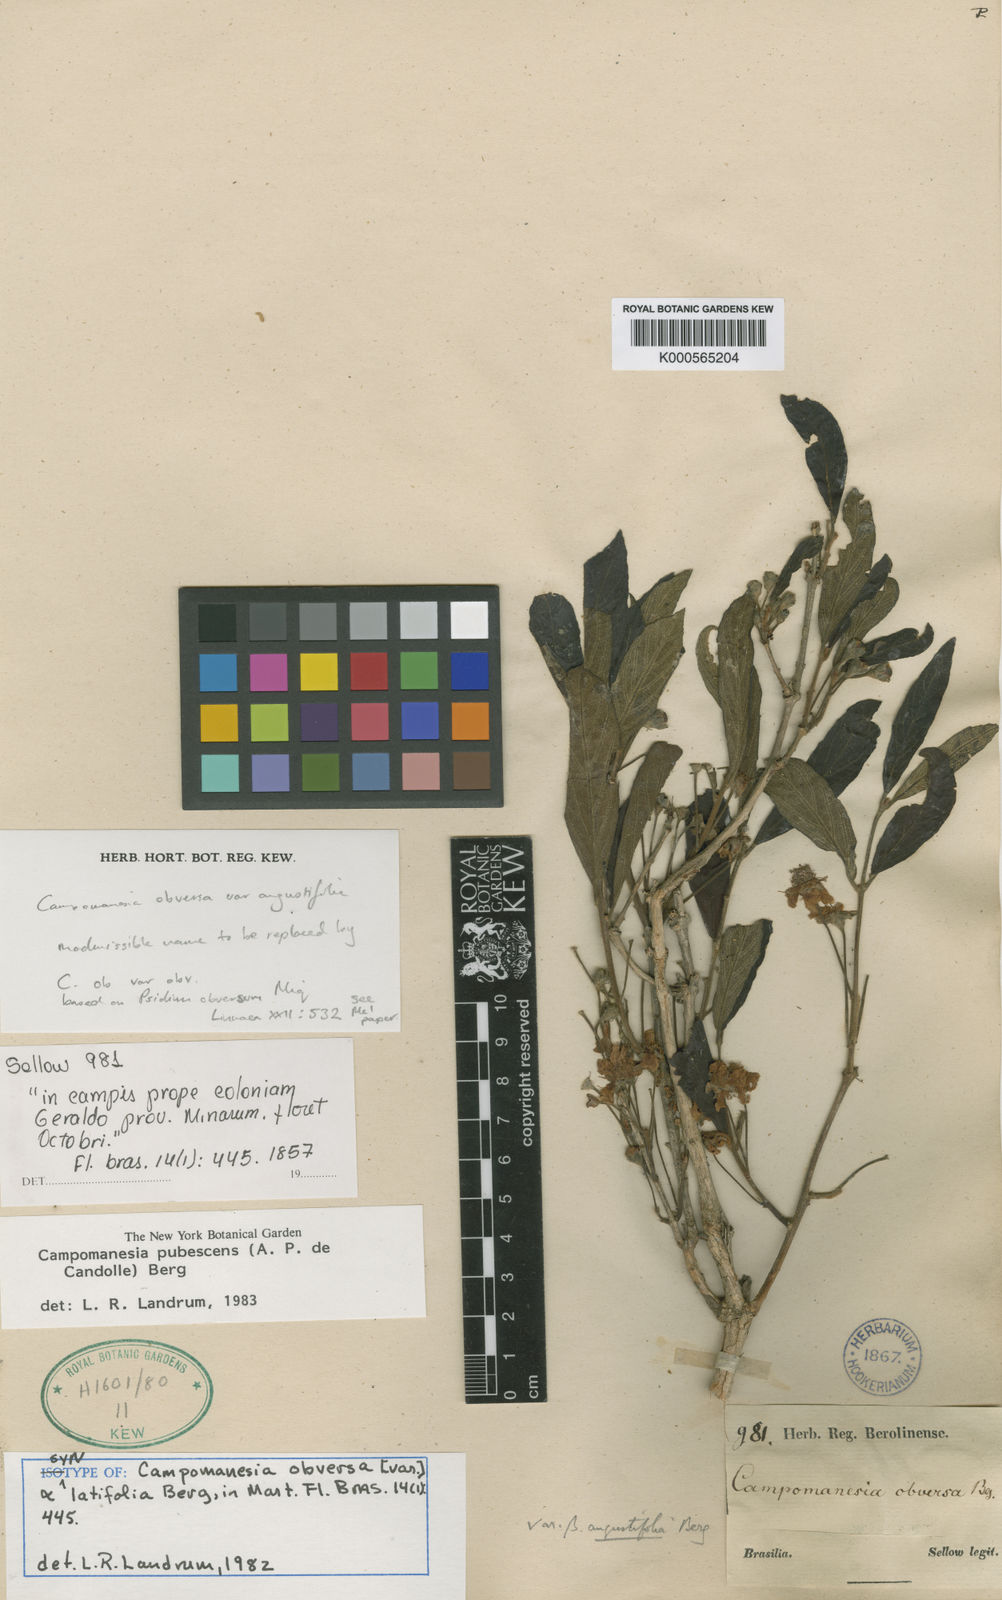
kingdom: Plantae
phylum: Tracheophyta
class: Magnoliopsida
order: Myrtales
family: Myrtaceae
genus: Campomanesia
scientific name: Campomanesia pubescens
